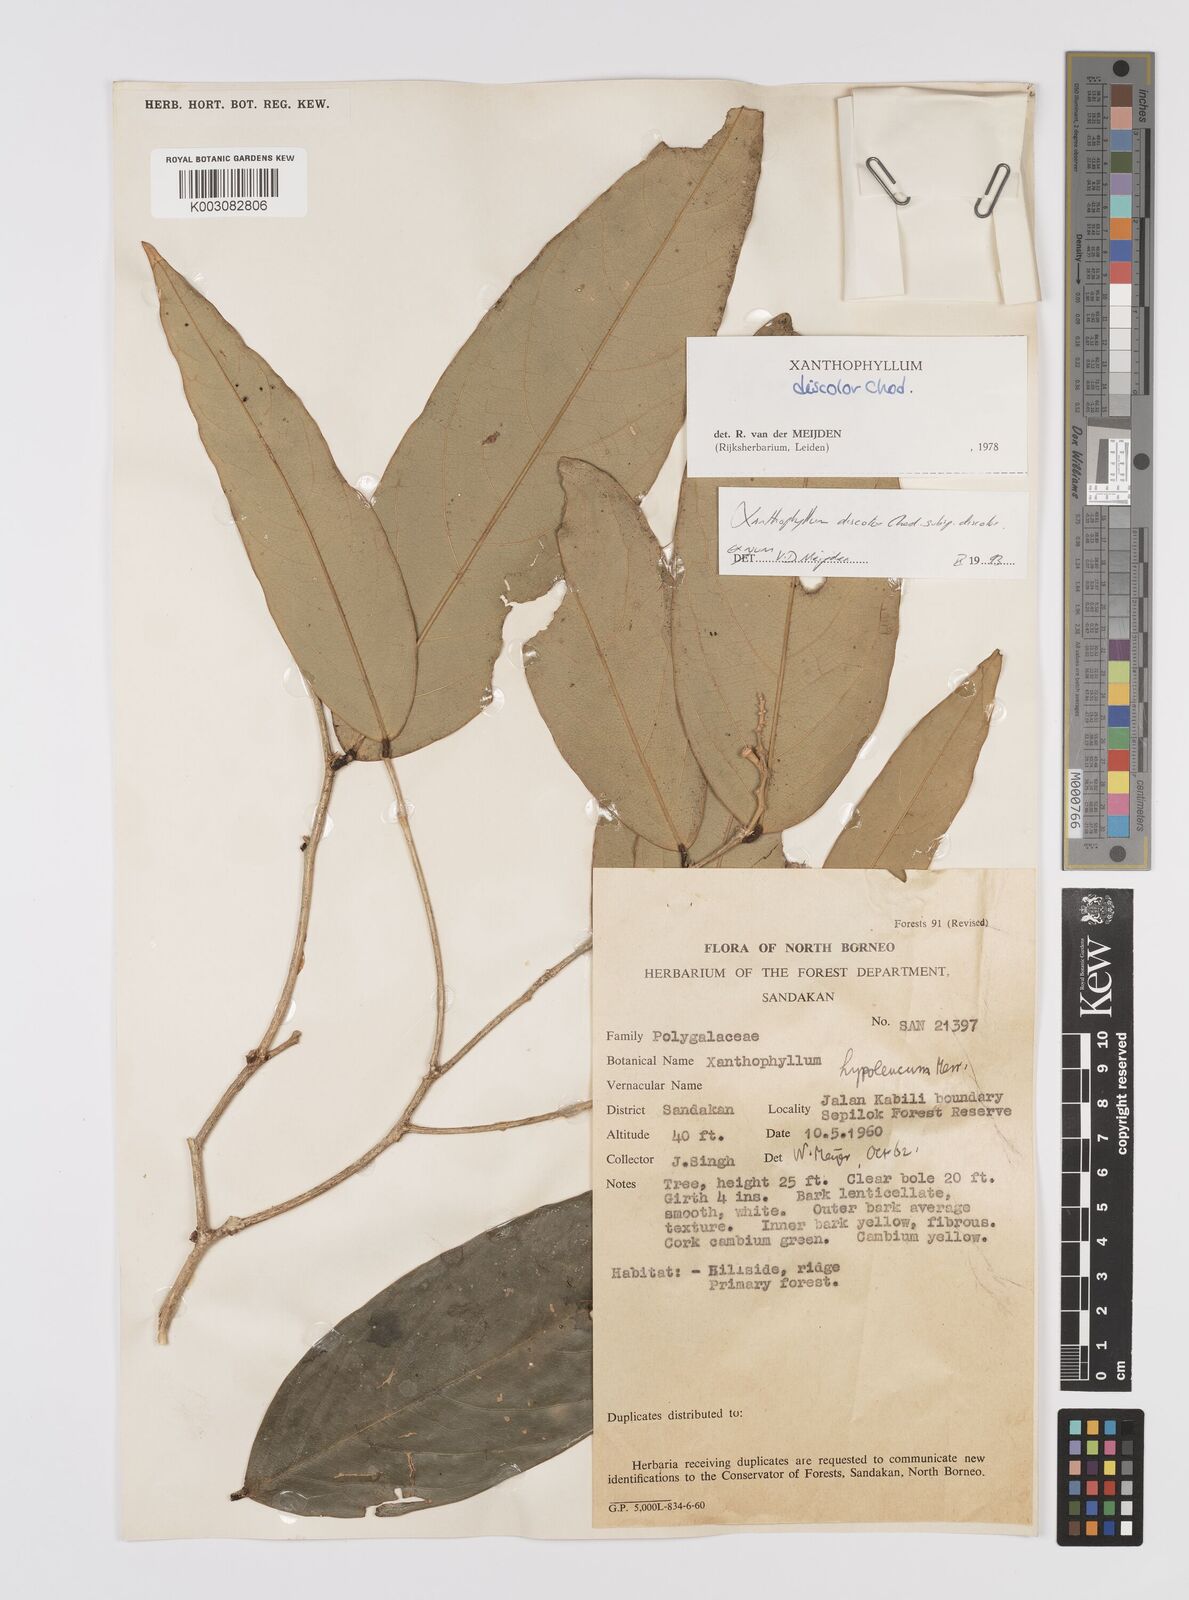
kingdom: Plantae
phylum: Tracheophyta
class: Magnoliopsida
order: Fabales
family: Polygalaceae
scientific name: Polygalaceae
